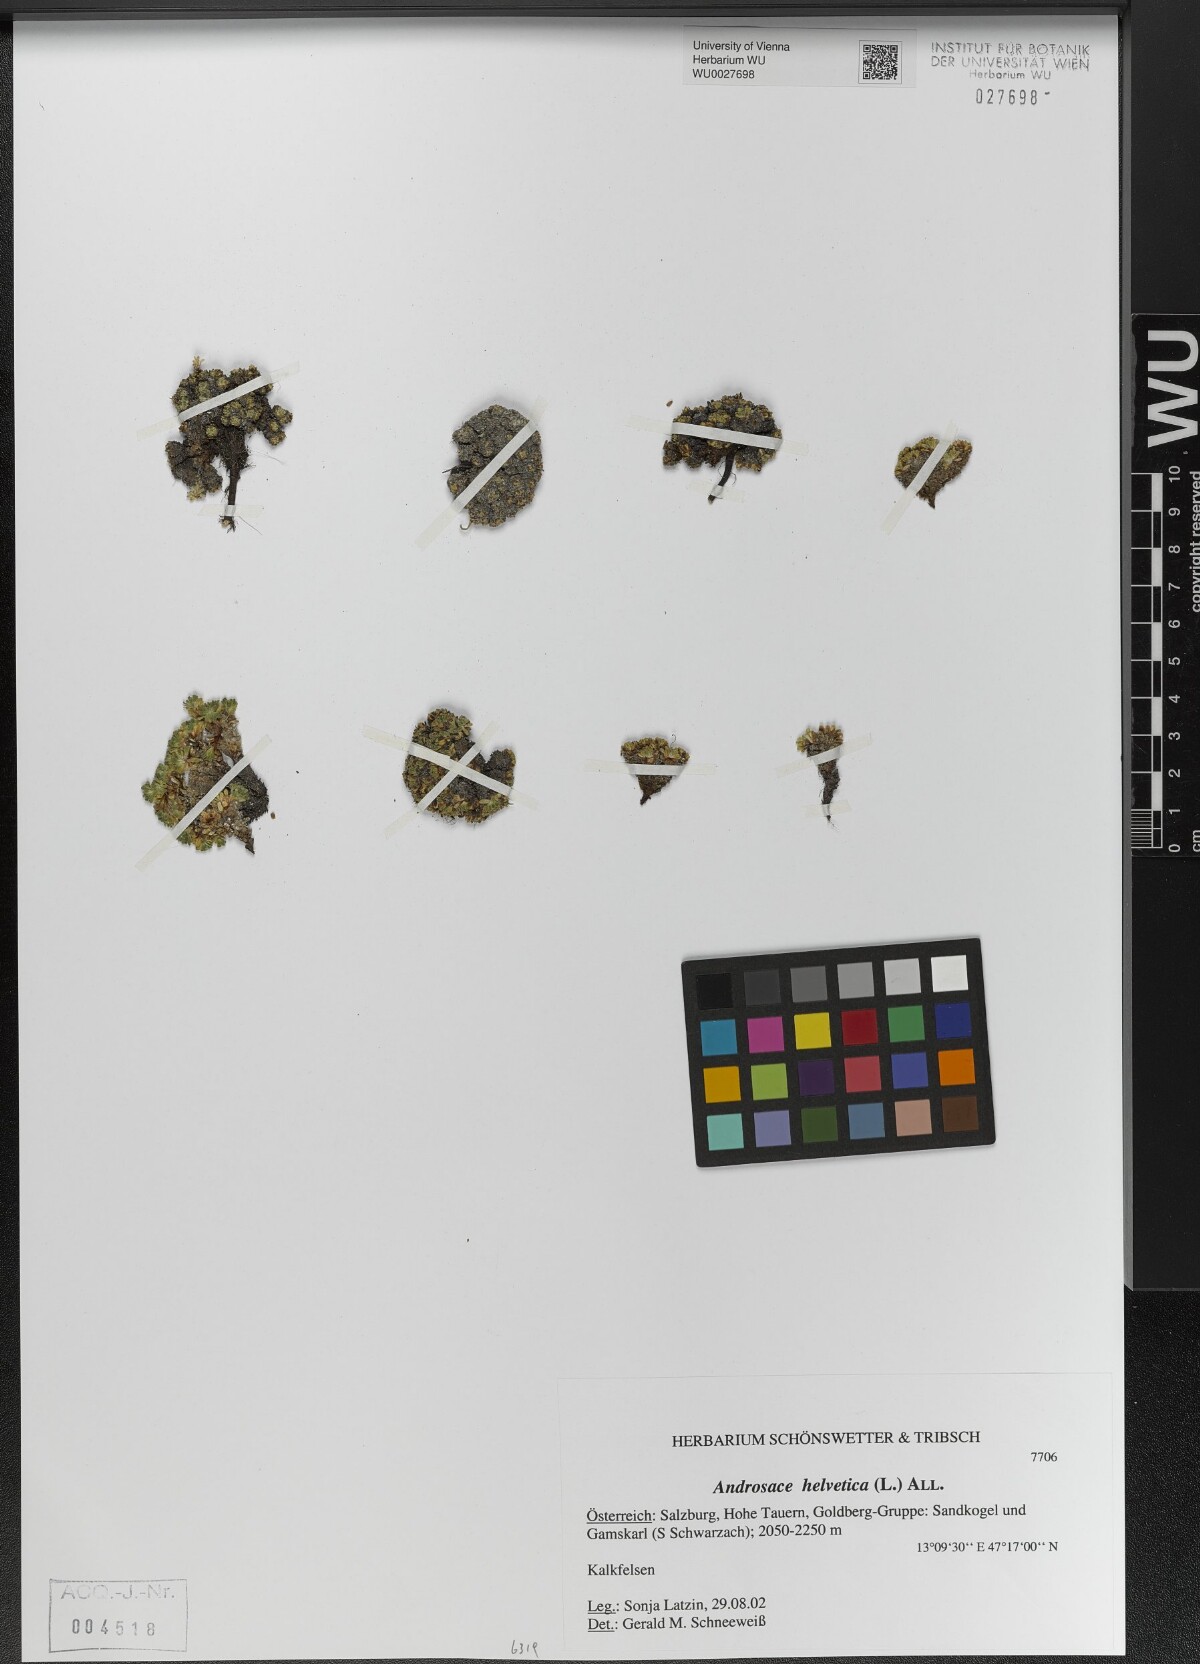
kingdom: Plantae
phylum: Tracheophyta
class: Magnoliopsida
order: Ericales
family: Primulaceae
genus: Androsace
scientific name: Androsace helvetica
